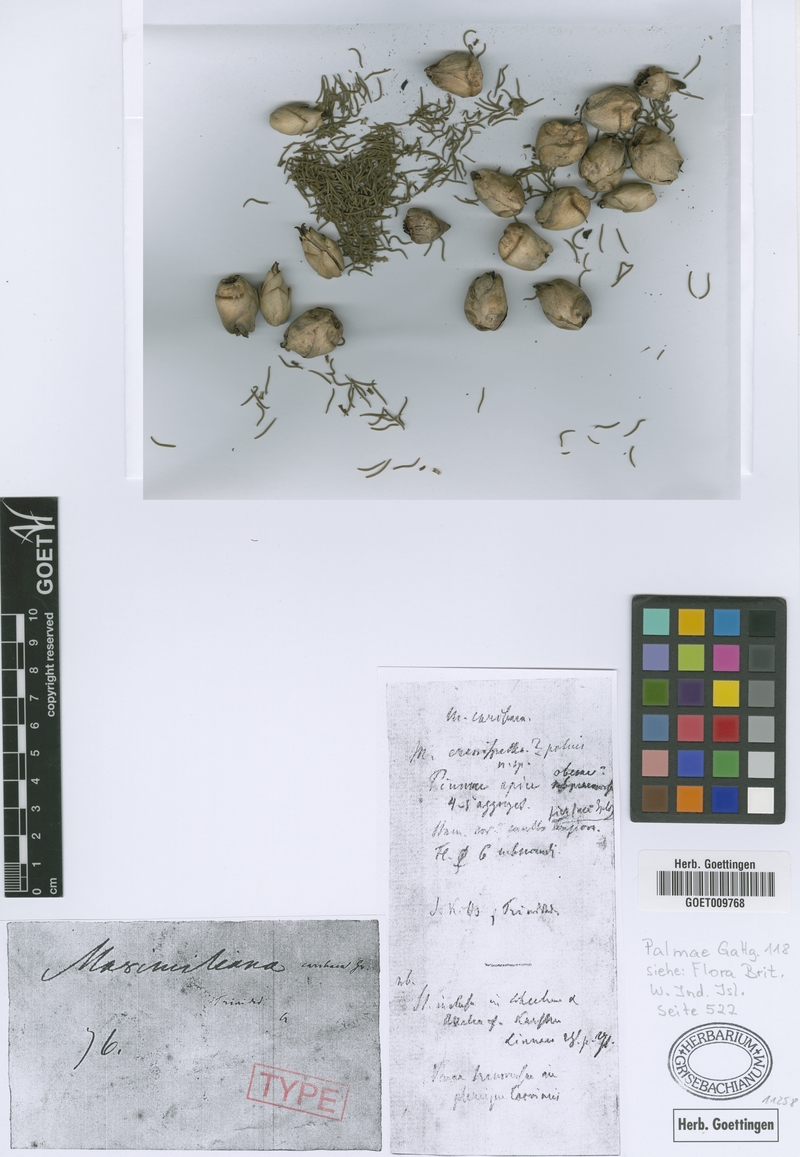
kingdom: Plantae
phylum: Tracheophyta
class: Liliopsida
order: Arecales
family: Arecaceae
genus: Attalea
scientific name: Attalea maripa
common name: Maripa palm
